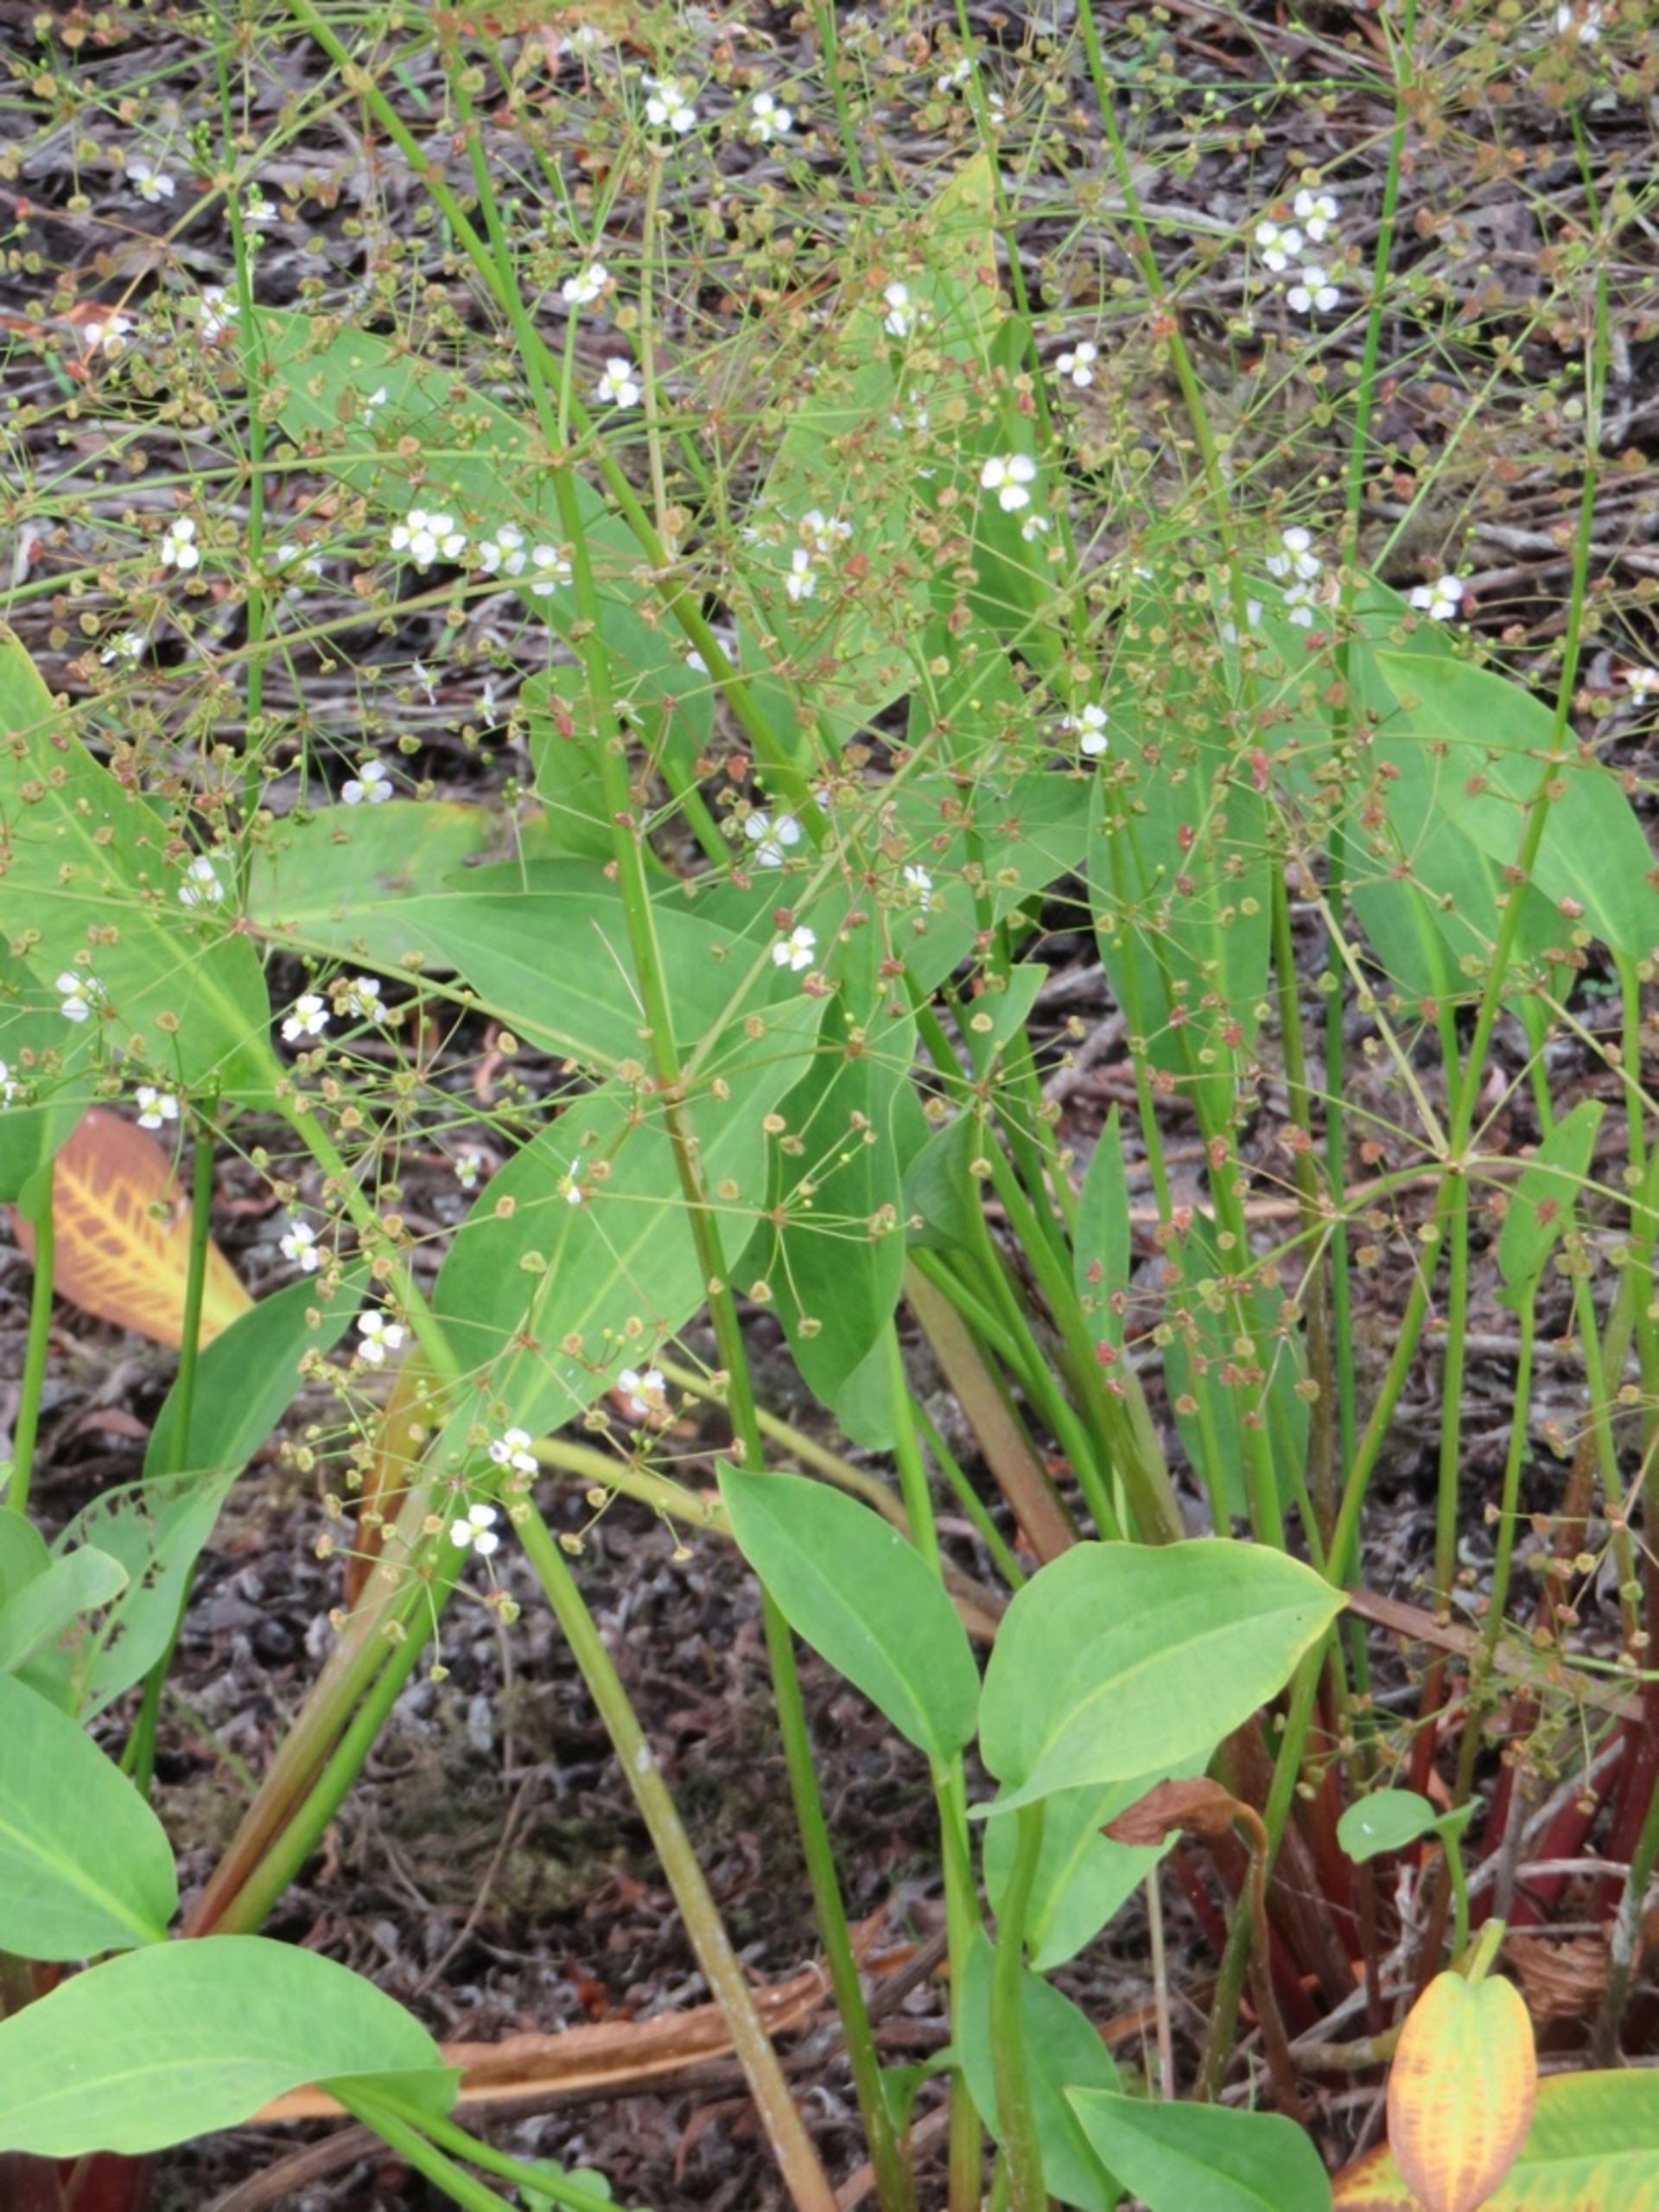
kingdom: Plantae
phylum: Tracheophyta
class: Liliopsida
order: Alismatales
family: Alismataceae
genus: Alisma
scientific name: Alisma plantago-aquatica
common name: Vejbred-skeblad
